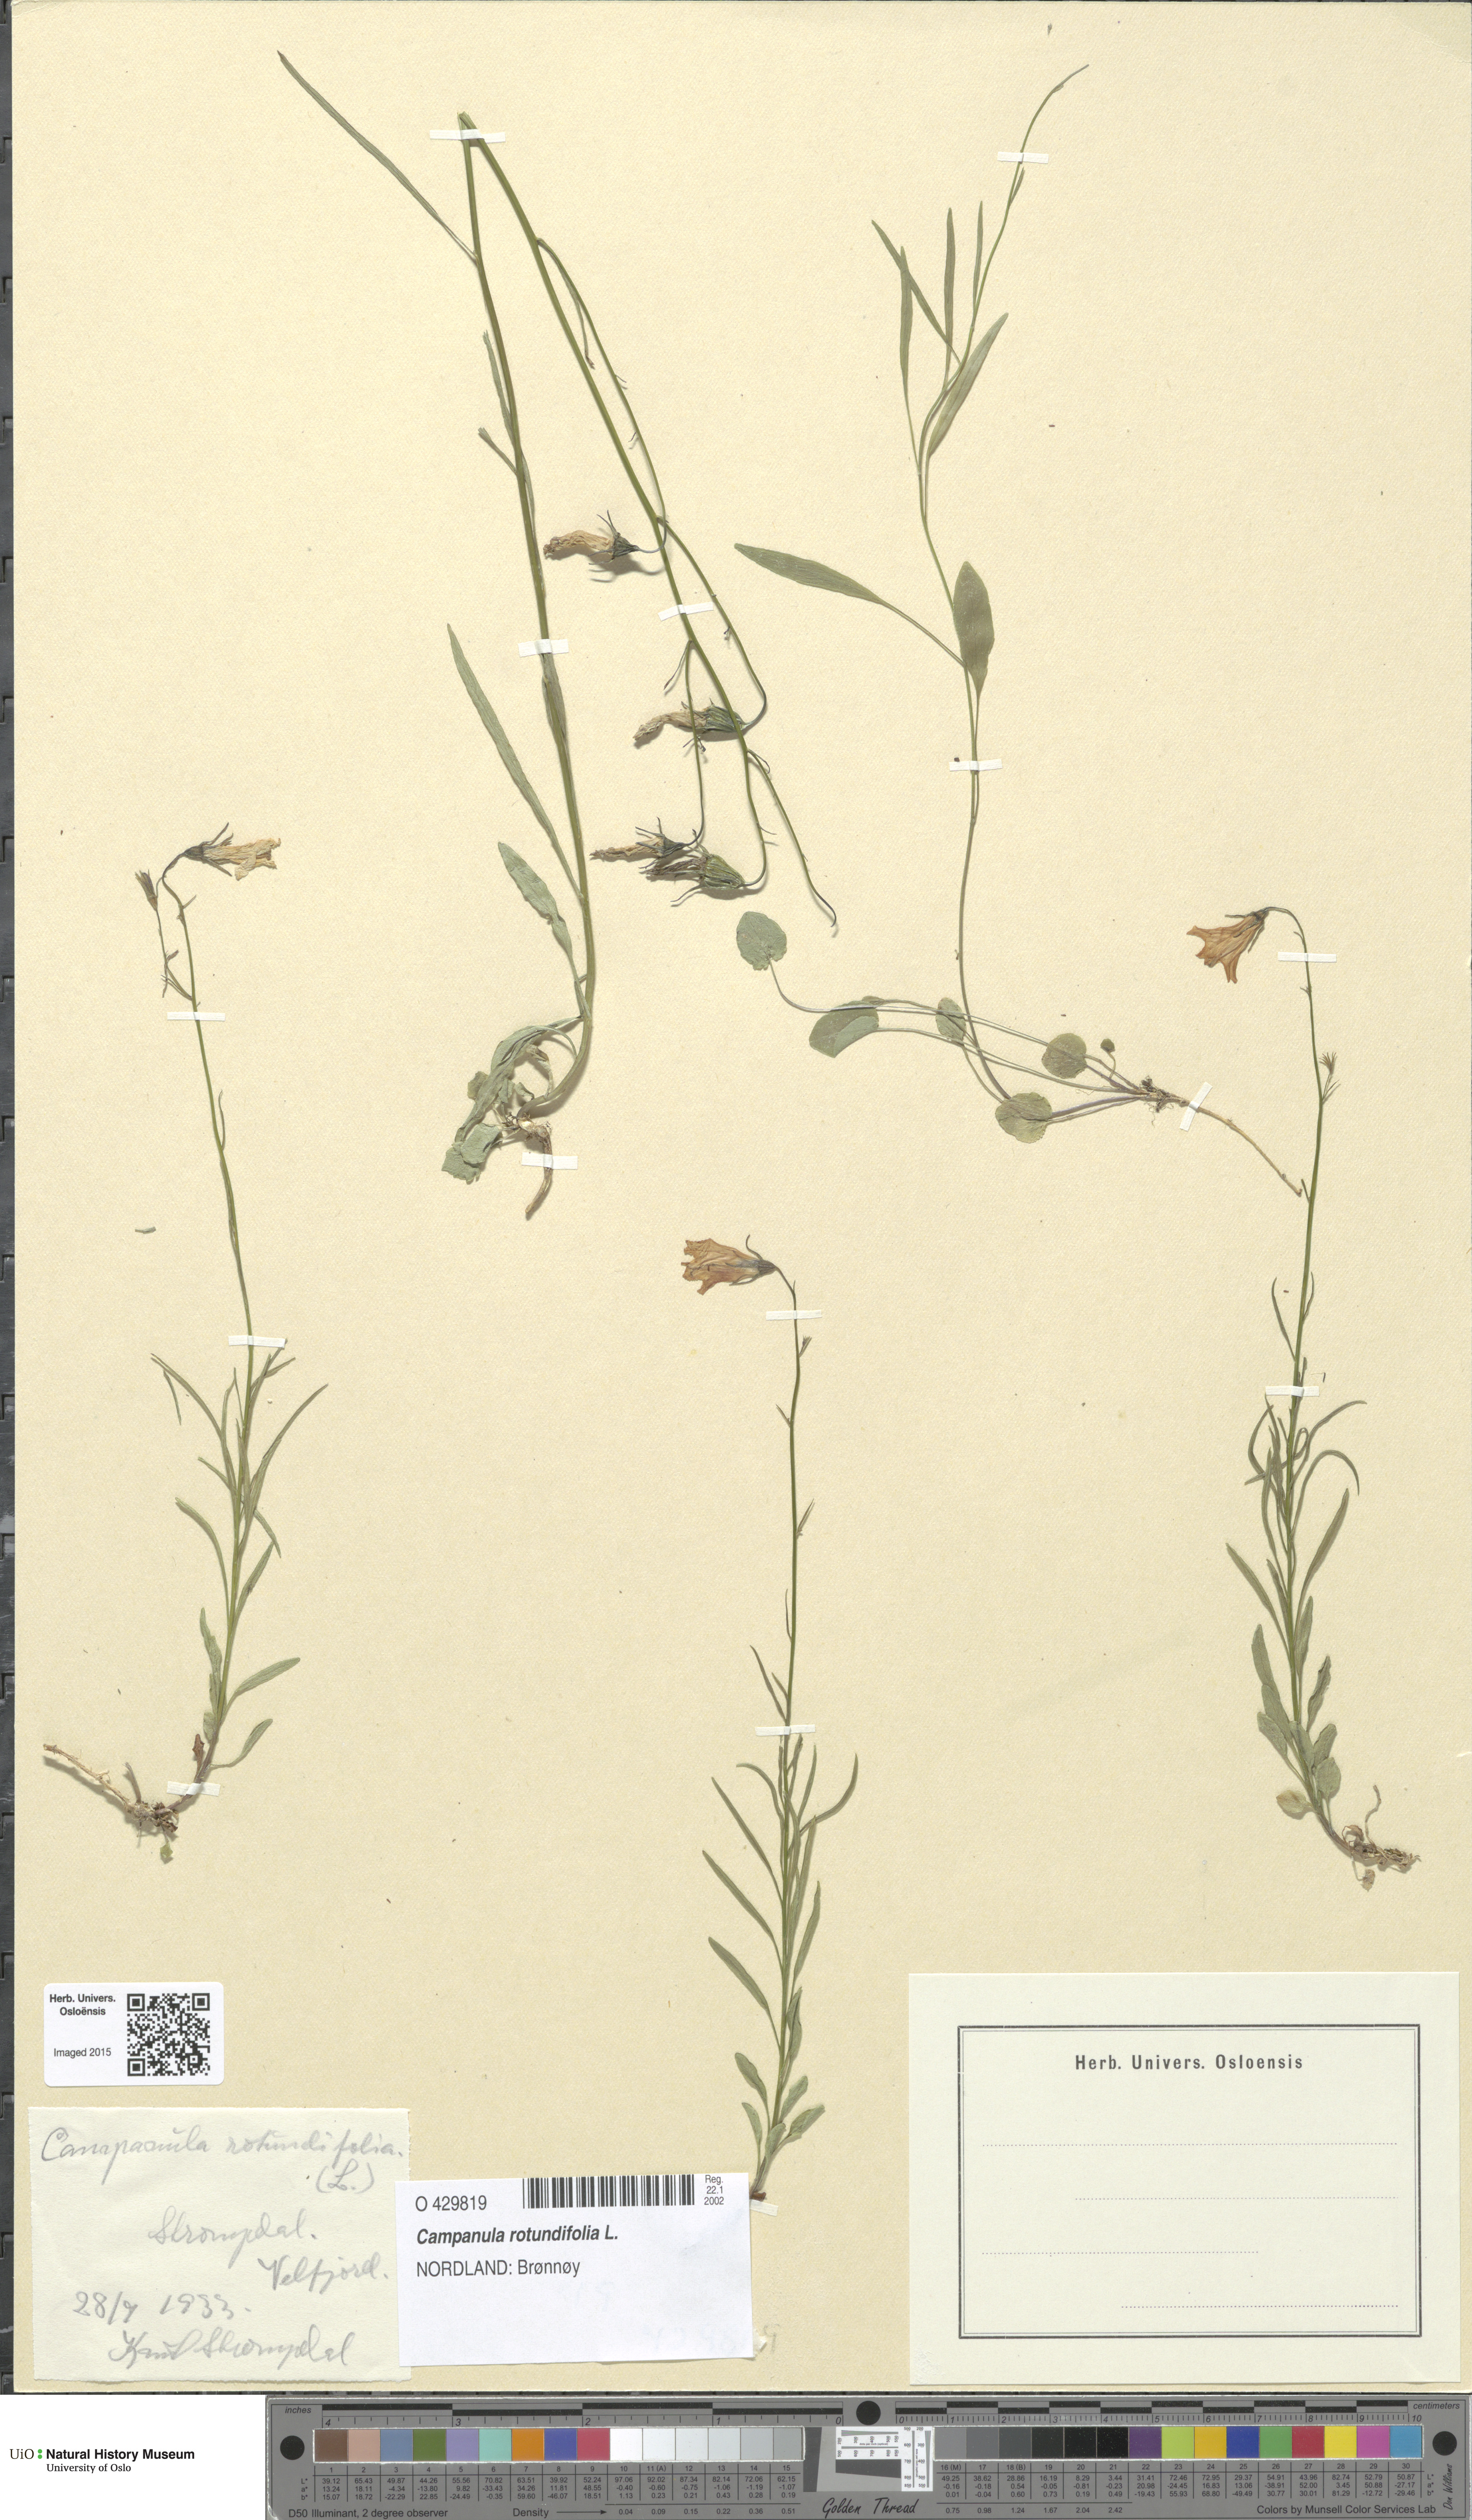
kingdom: Plantae
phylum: Tracheophyta
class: Magnoliopsida
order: Asterales
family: Campanulaceae
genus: Campanula
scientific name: Campanula rotundifolia
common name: Harebell
